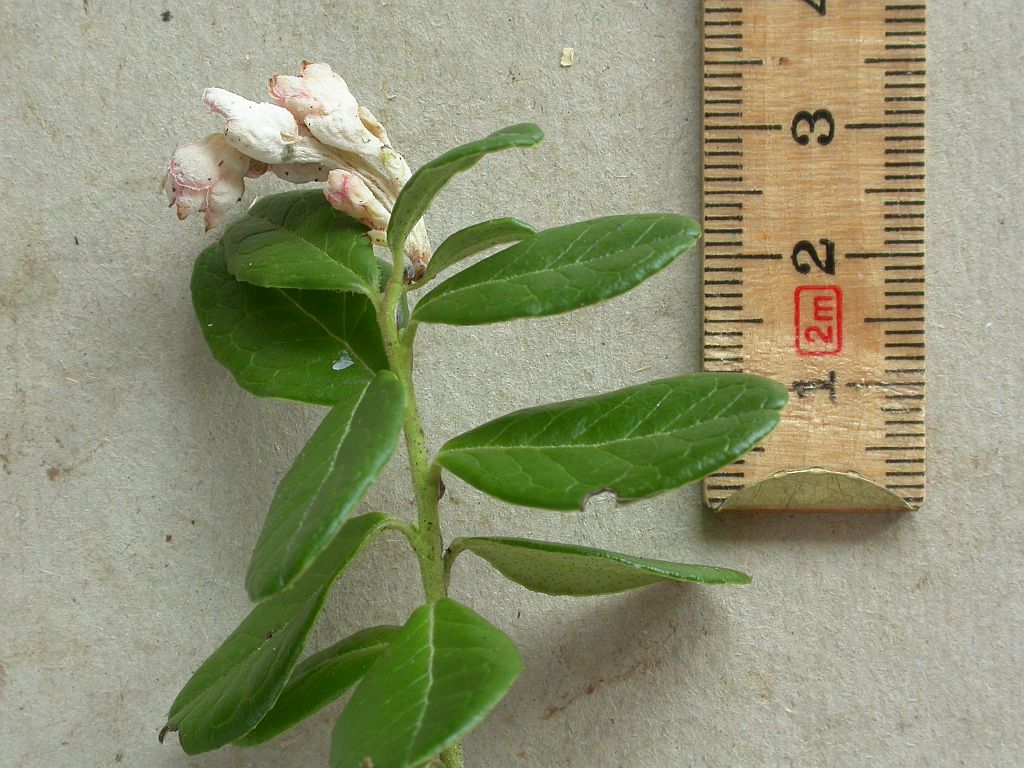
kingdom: Fungi
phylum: Basidiomycota
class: Exobasidiomycetes
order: Exobasidiales
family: Exobasidiaceae
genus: Exobasidium
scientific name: Exobasidium vaccinii
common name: tyttebærblad-bøllesvamp
